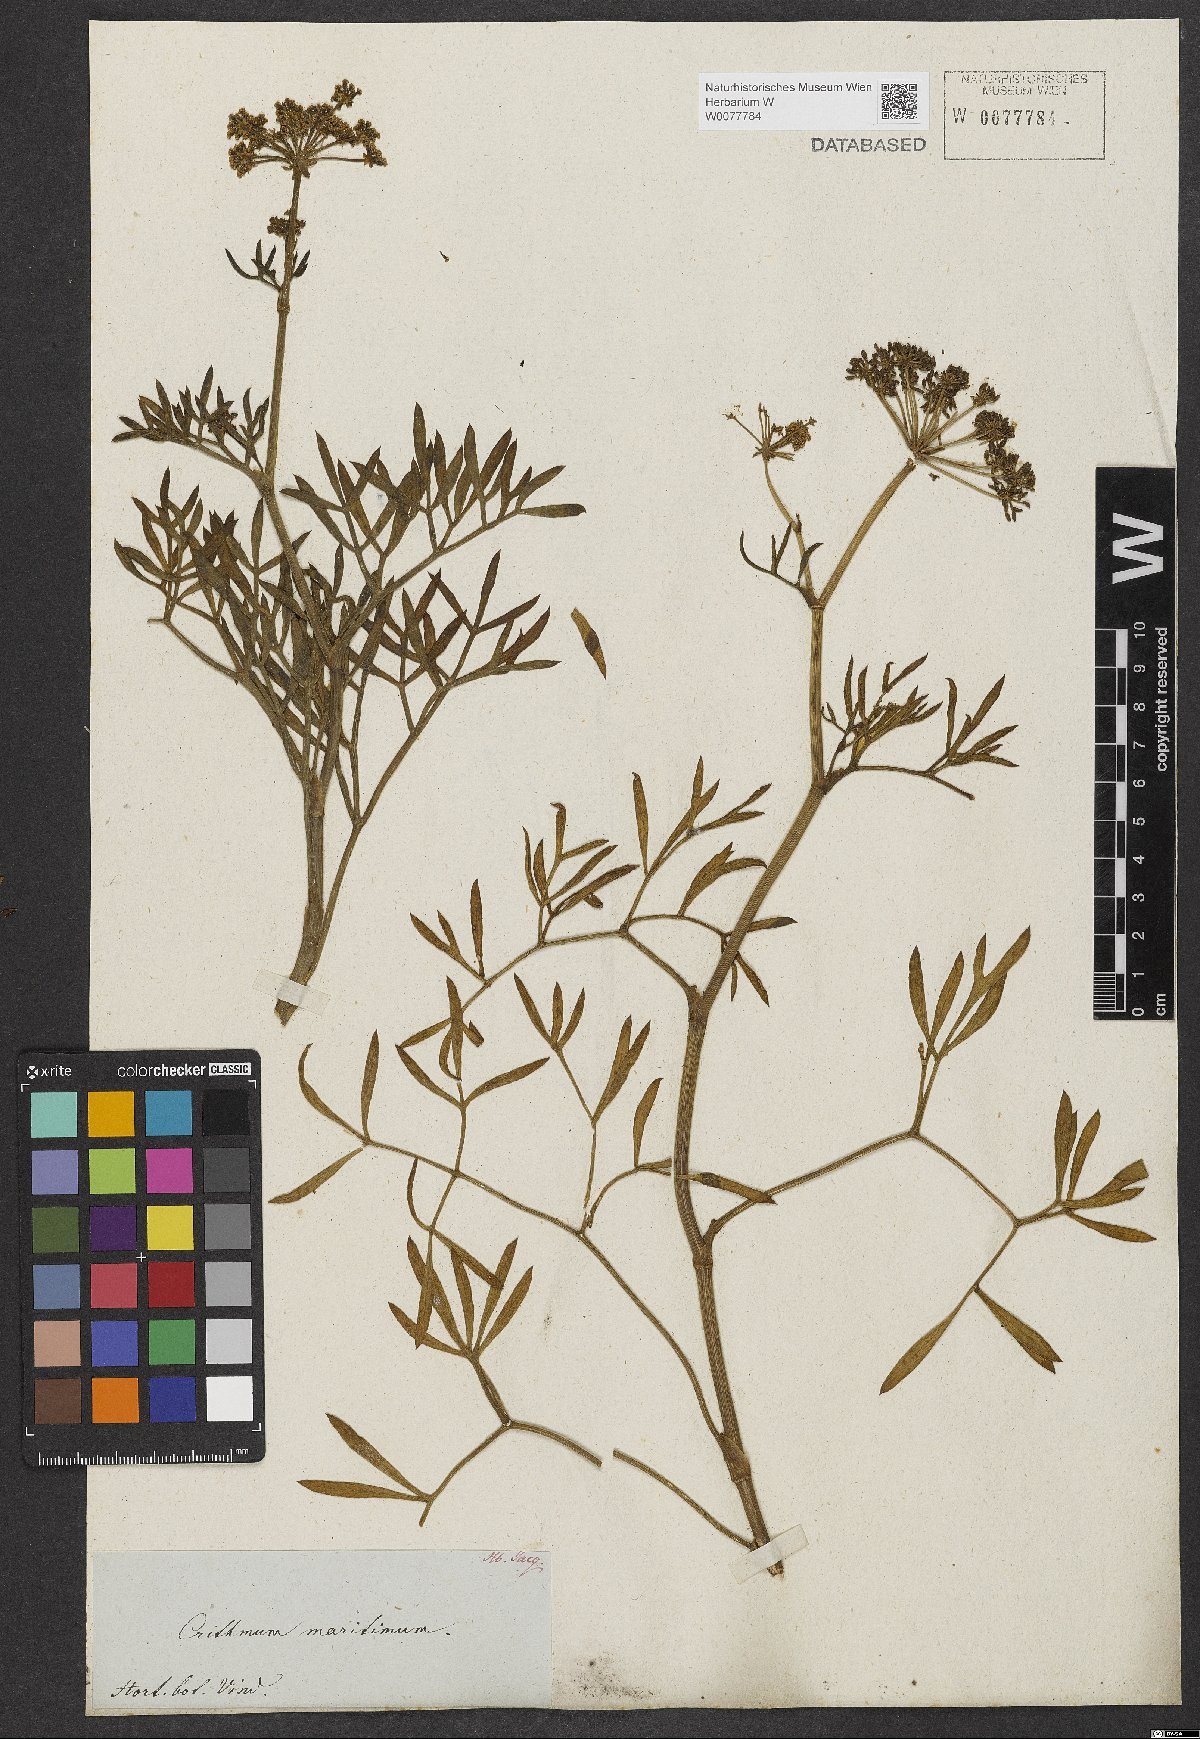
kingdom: Plantae
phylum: Tracheophyta
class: Magnoliopsida
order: Apiales
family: Apiaceae
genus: Crithmum
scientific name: Crithmum maritimum
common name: Rock samphire
